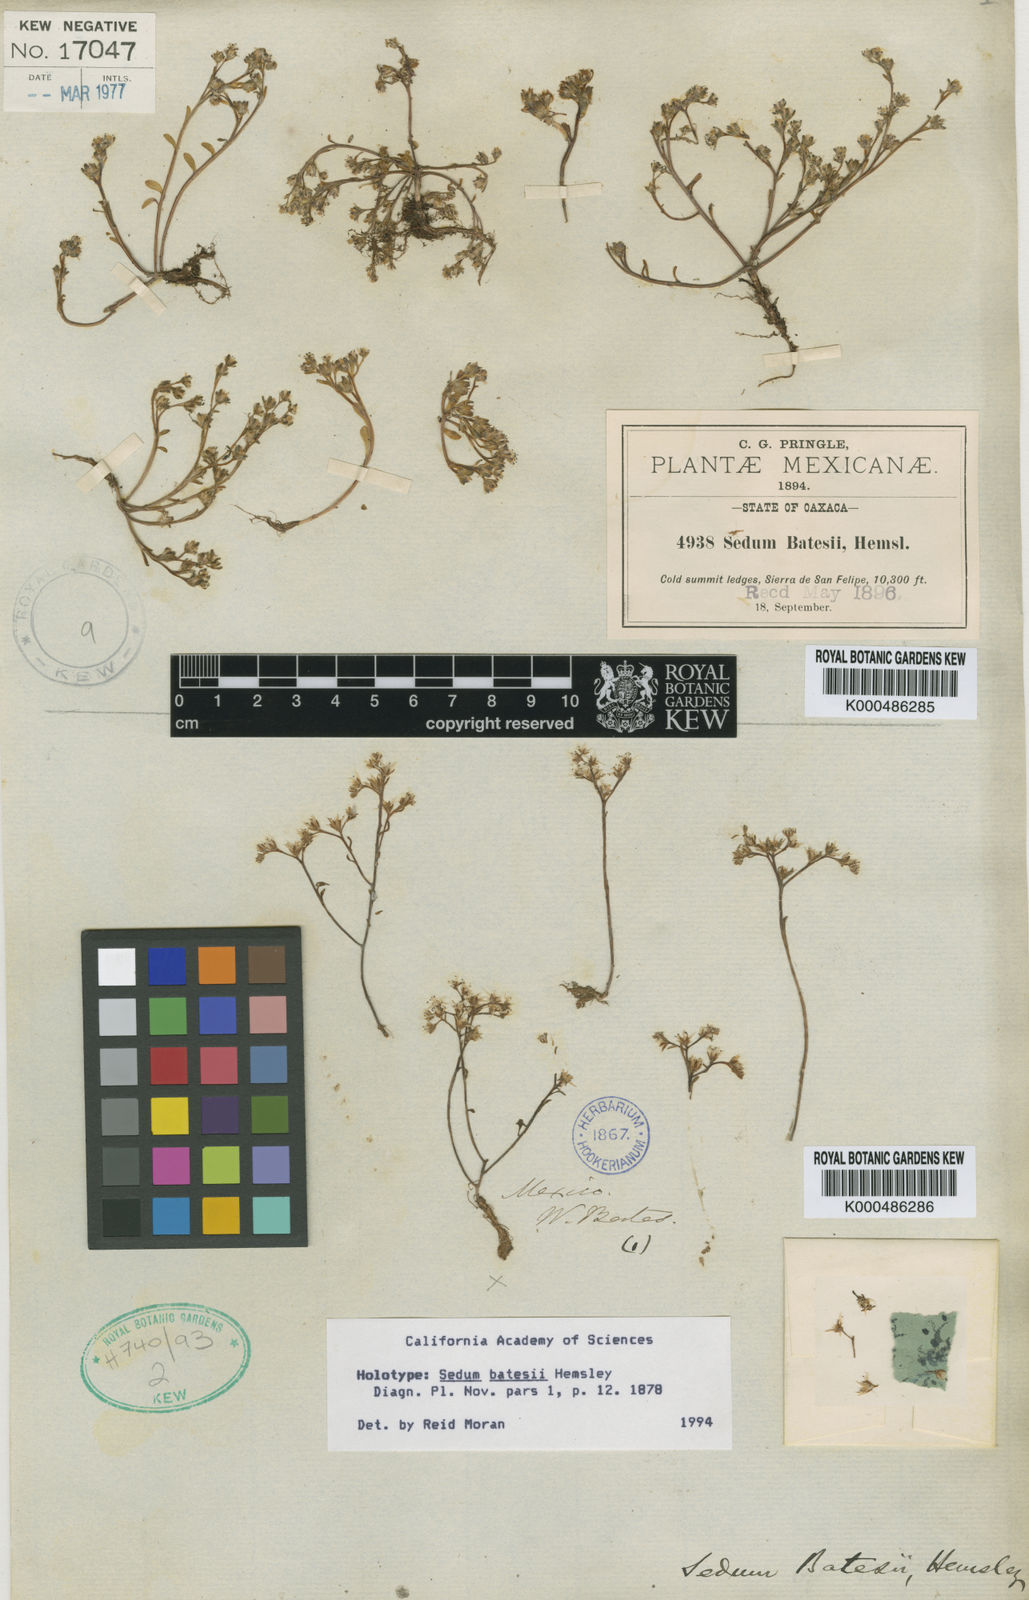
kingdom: Plantae
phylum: Tracheophyta
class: Magnoliopsida
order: Saxifragales
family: Crassulaceae
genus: Sedum
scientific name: Sedum batesii
